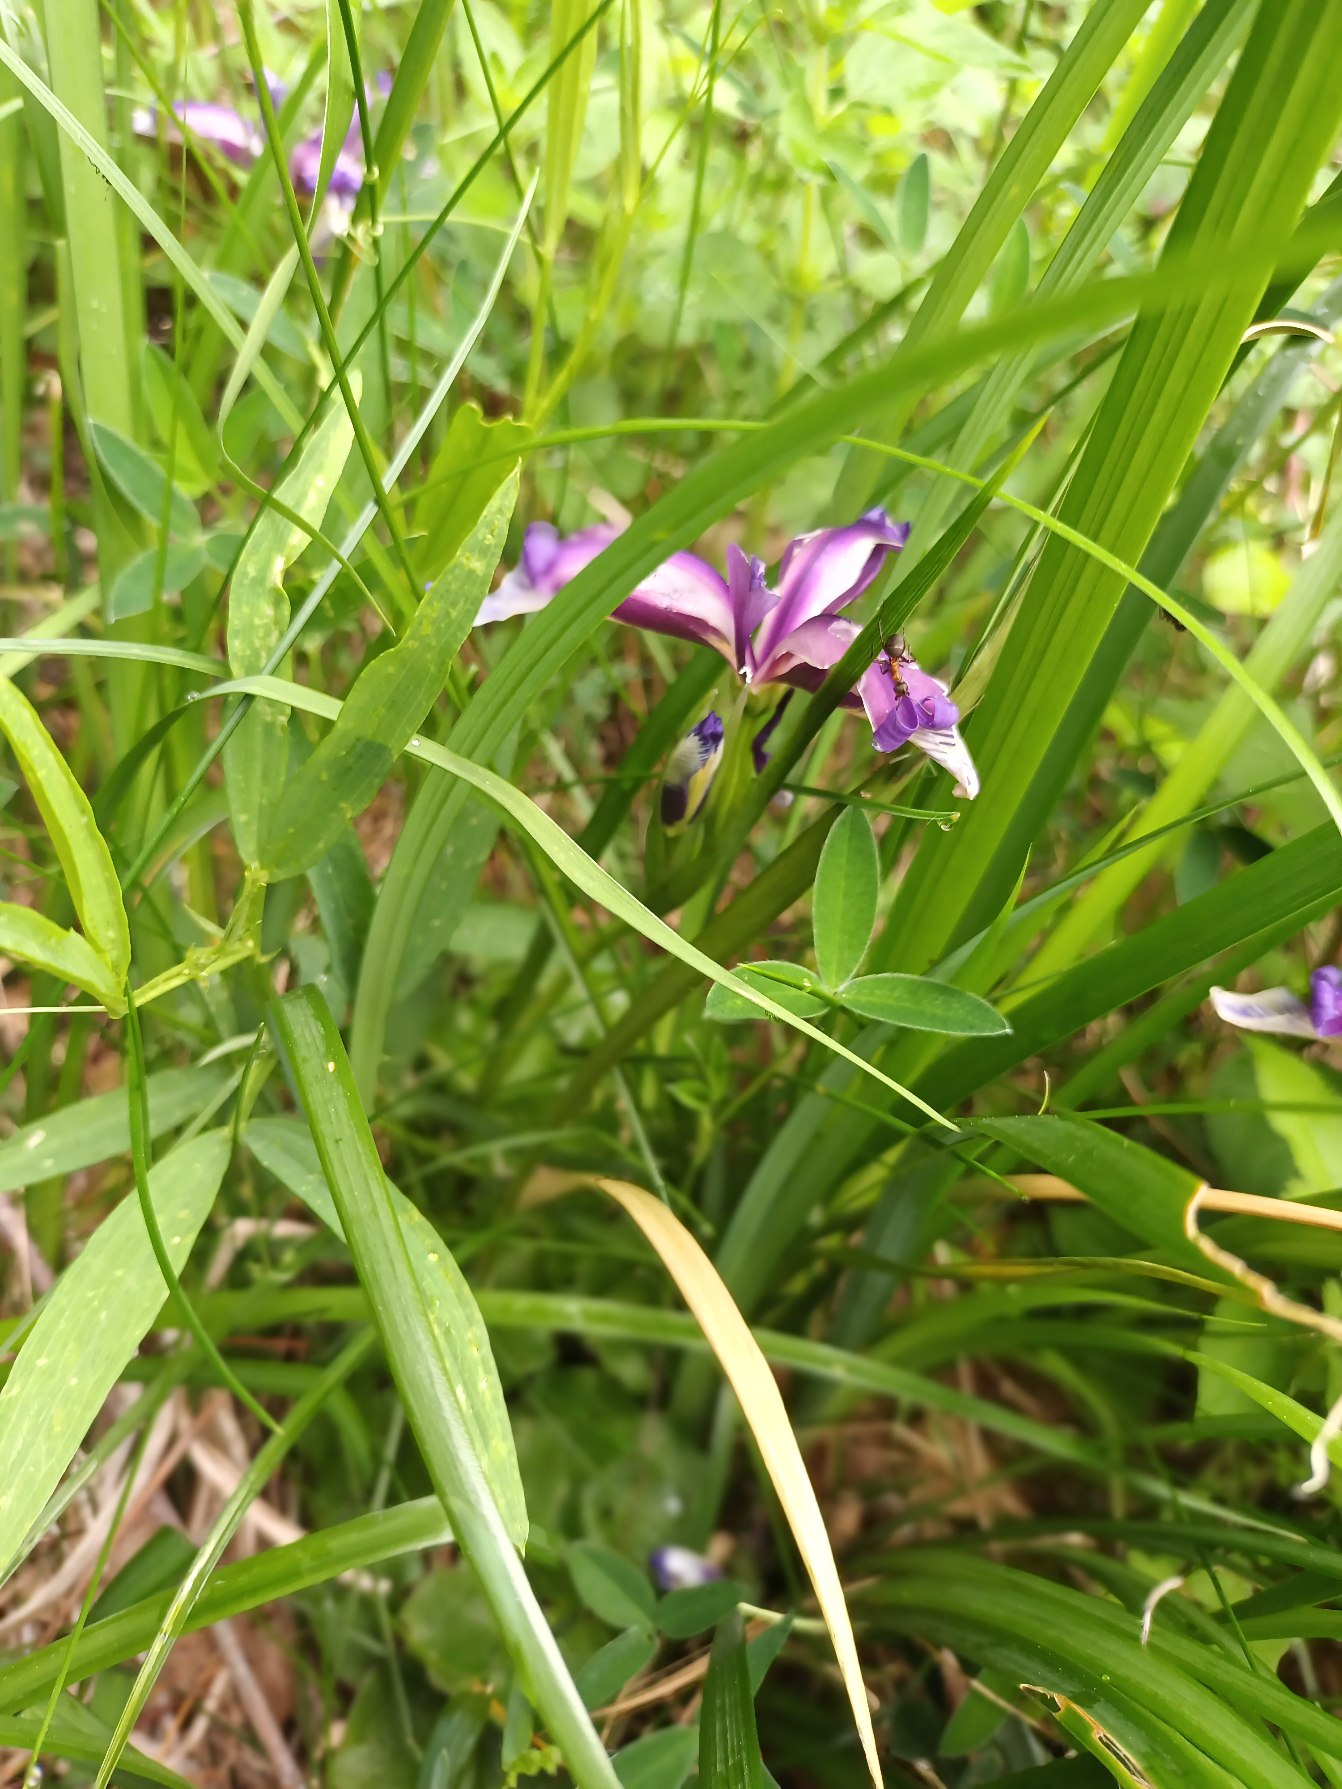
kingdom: Plantae
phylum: Tracheophyta
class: Liliopsida
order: Asparagales
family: Iridaceae
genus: Iris
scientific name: Iris graminea
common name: Græsbladet iris
